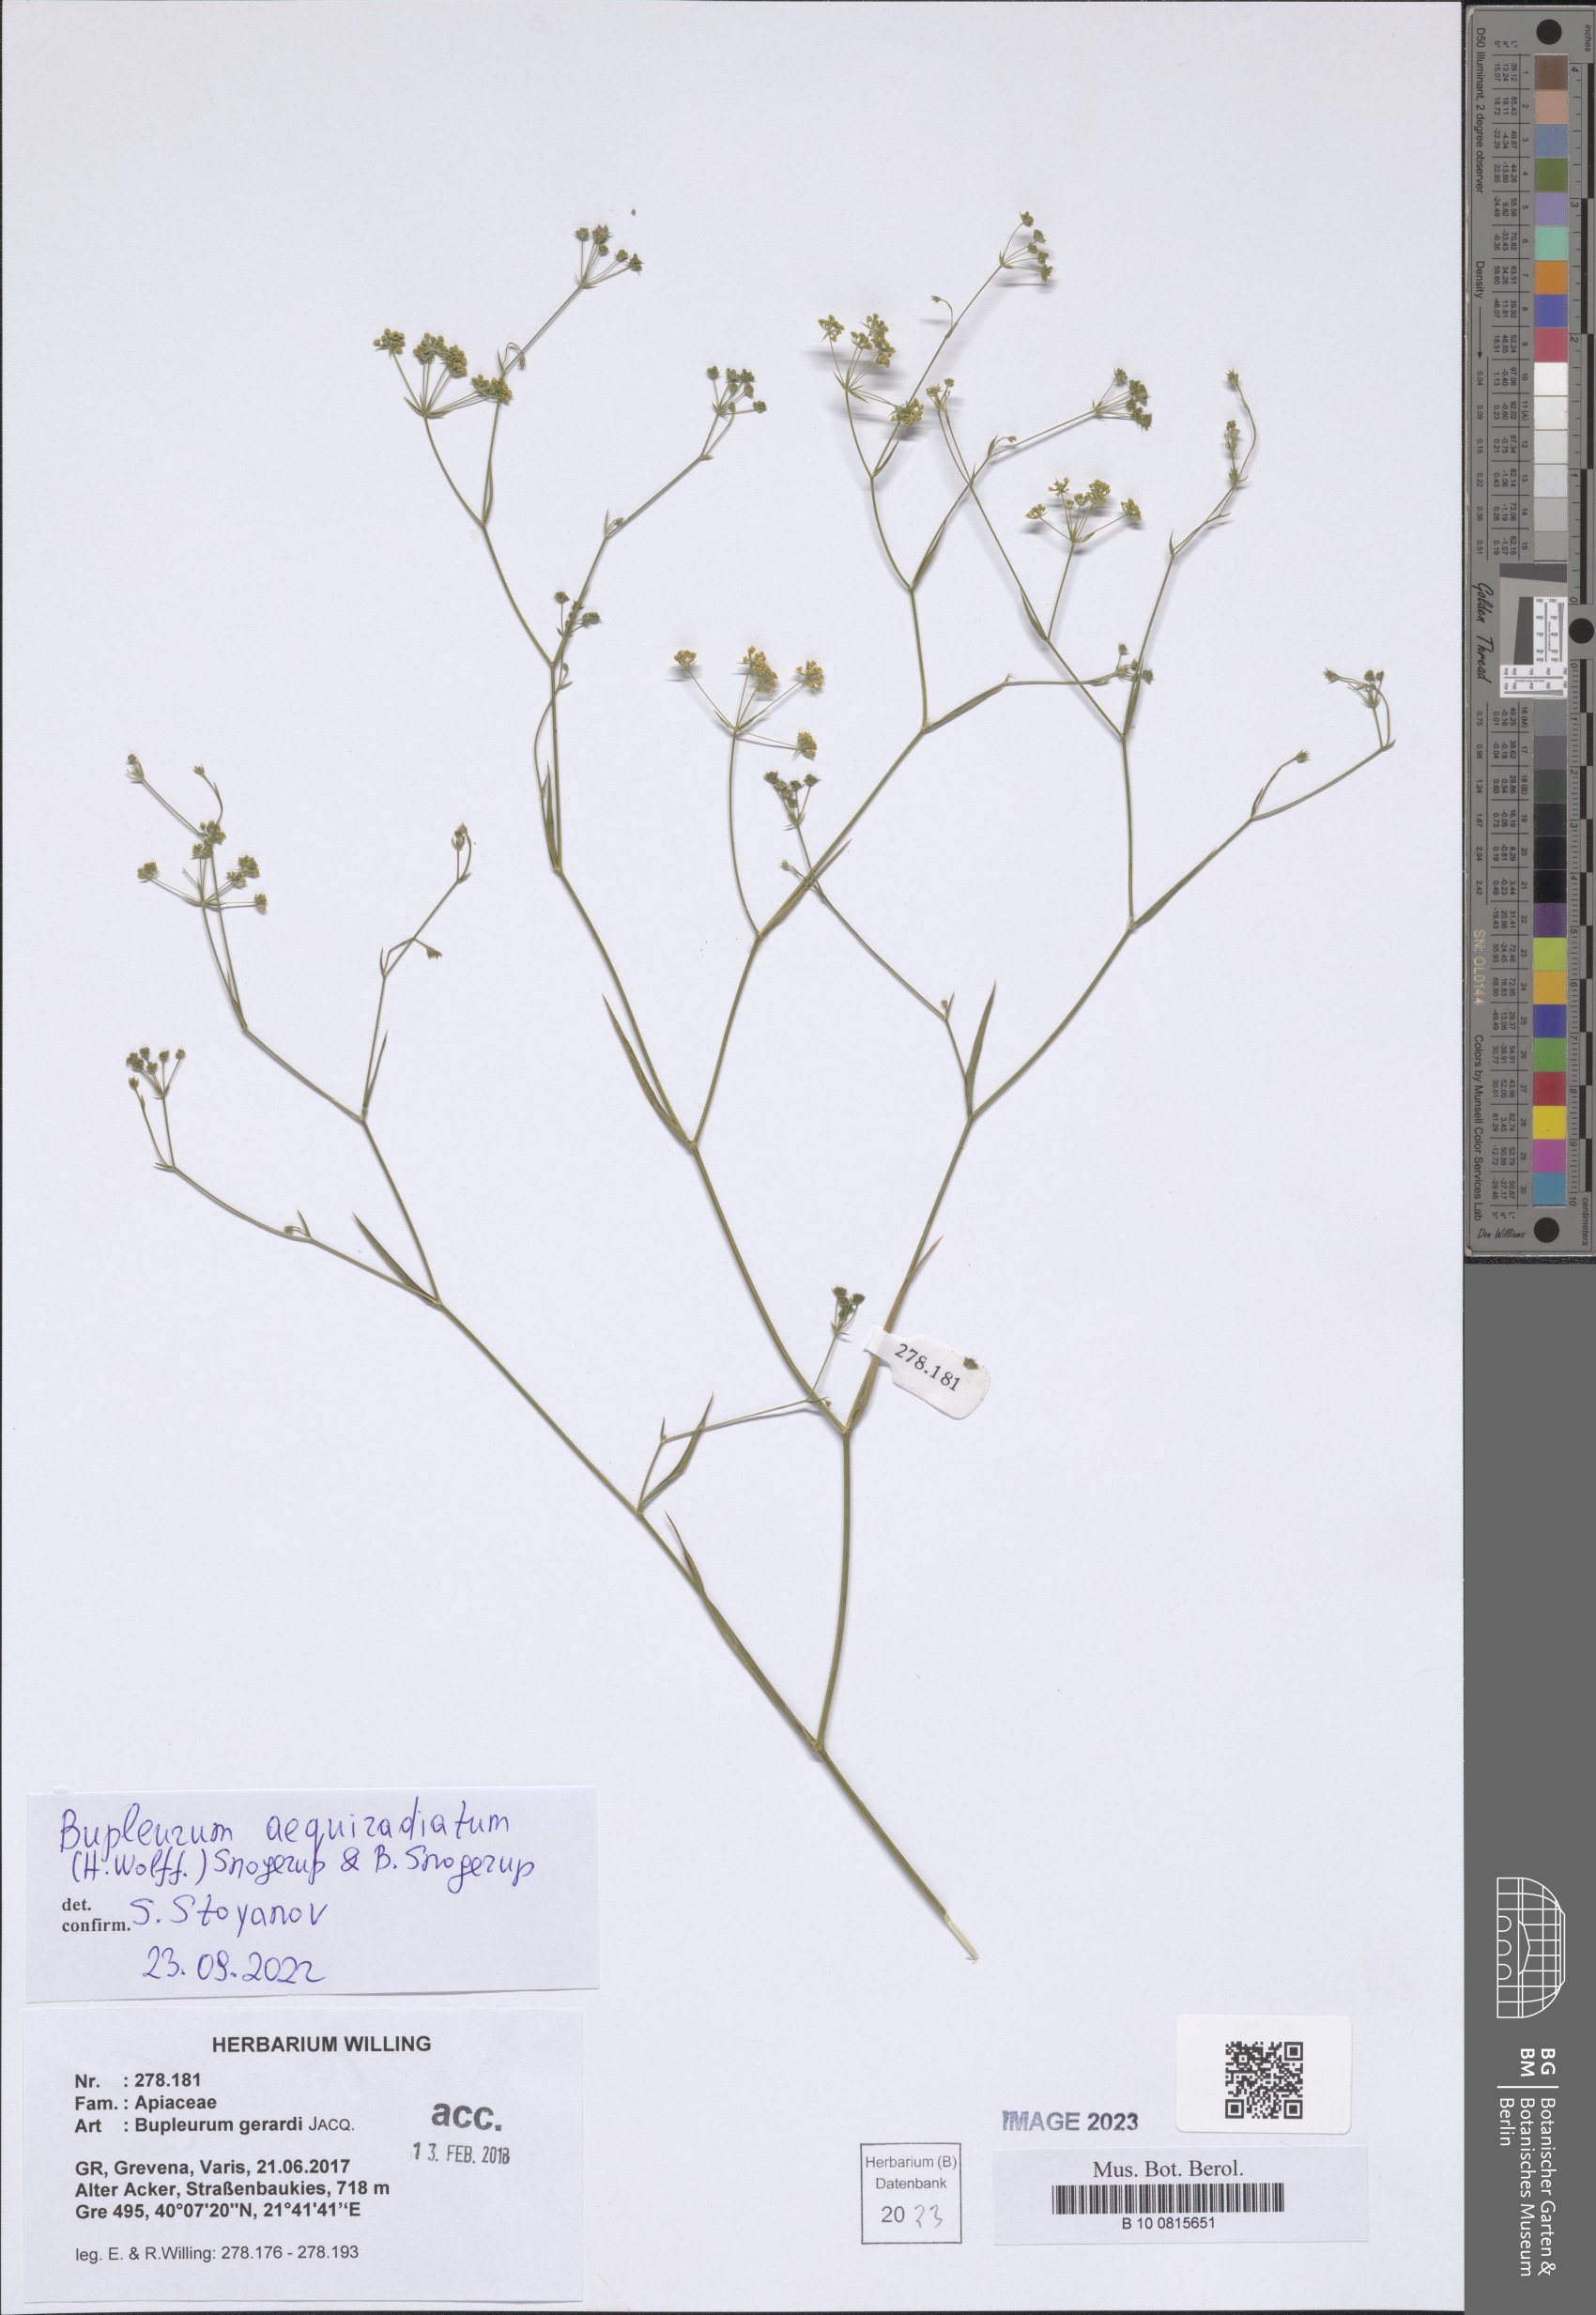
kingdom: Plantae
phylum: Tracheophyta
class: Magnoliopsida
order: Apiales
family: Apiaceae
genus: Bupleurum
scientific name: Bupleurum aequiradiatum
